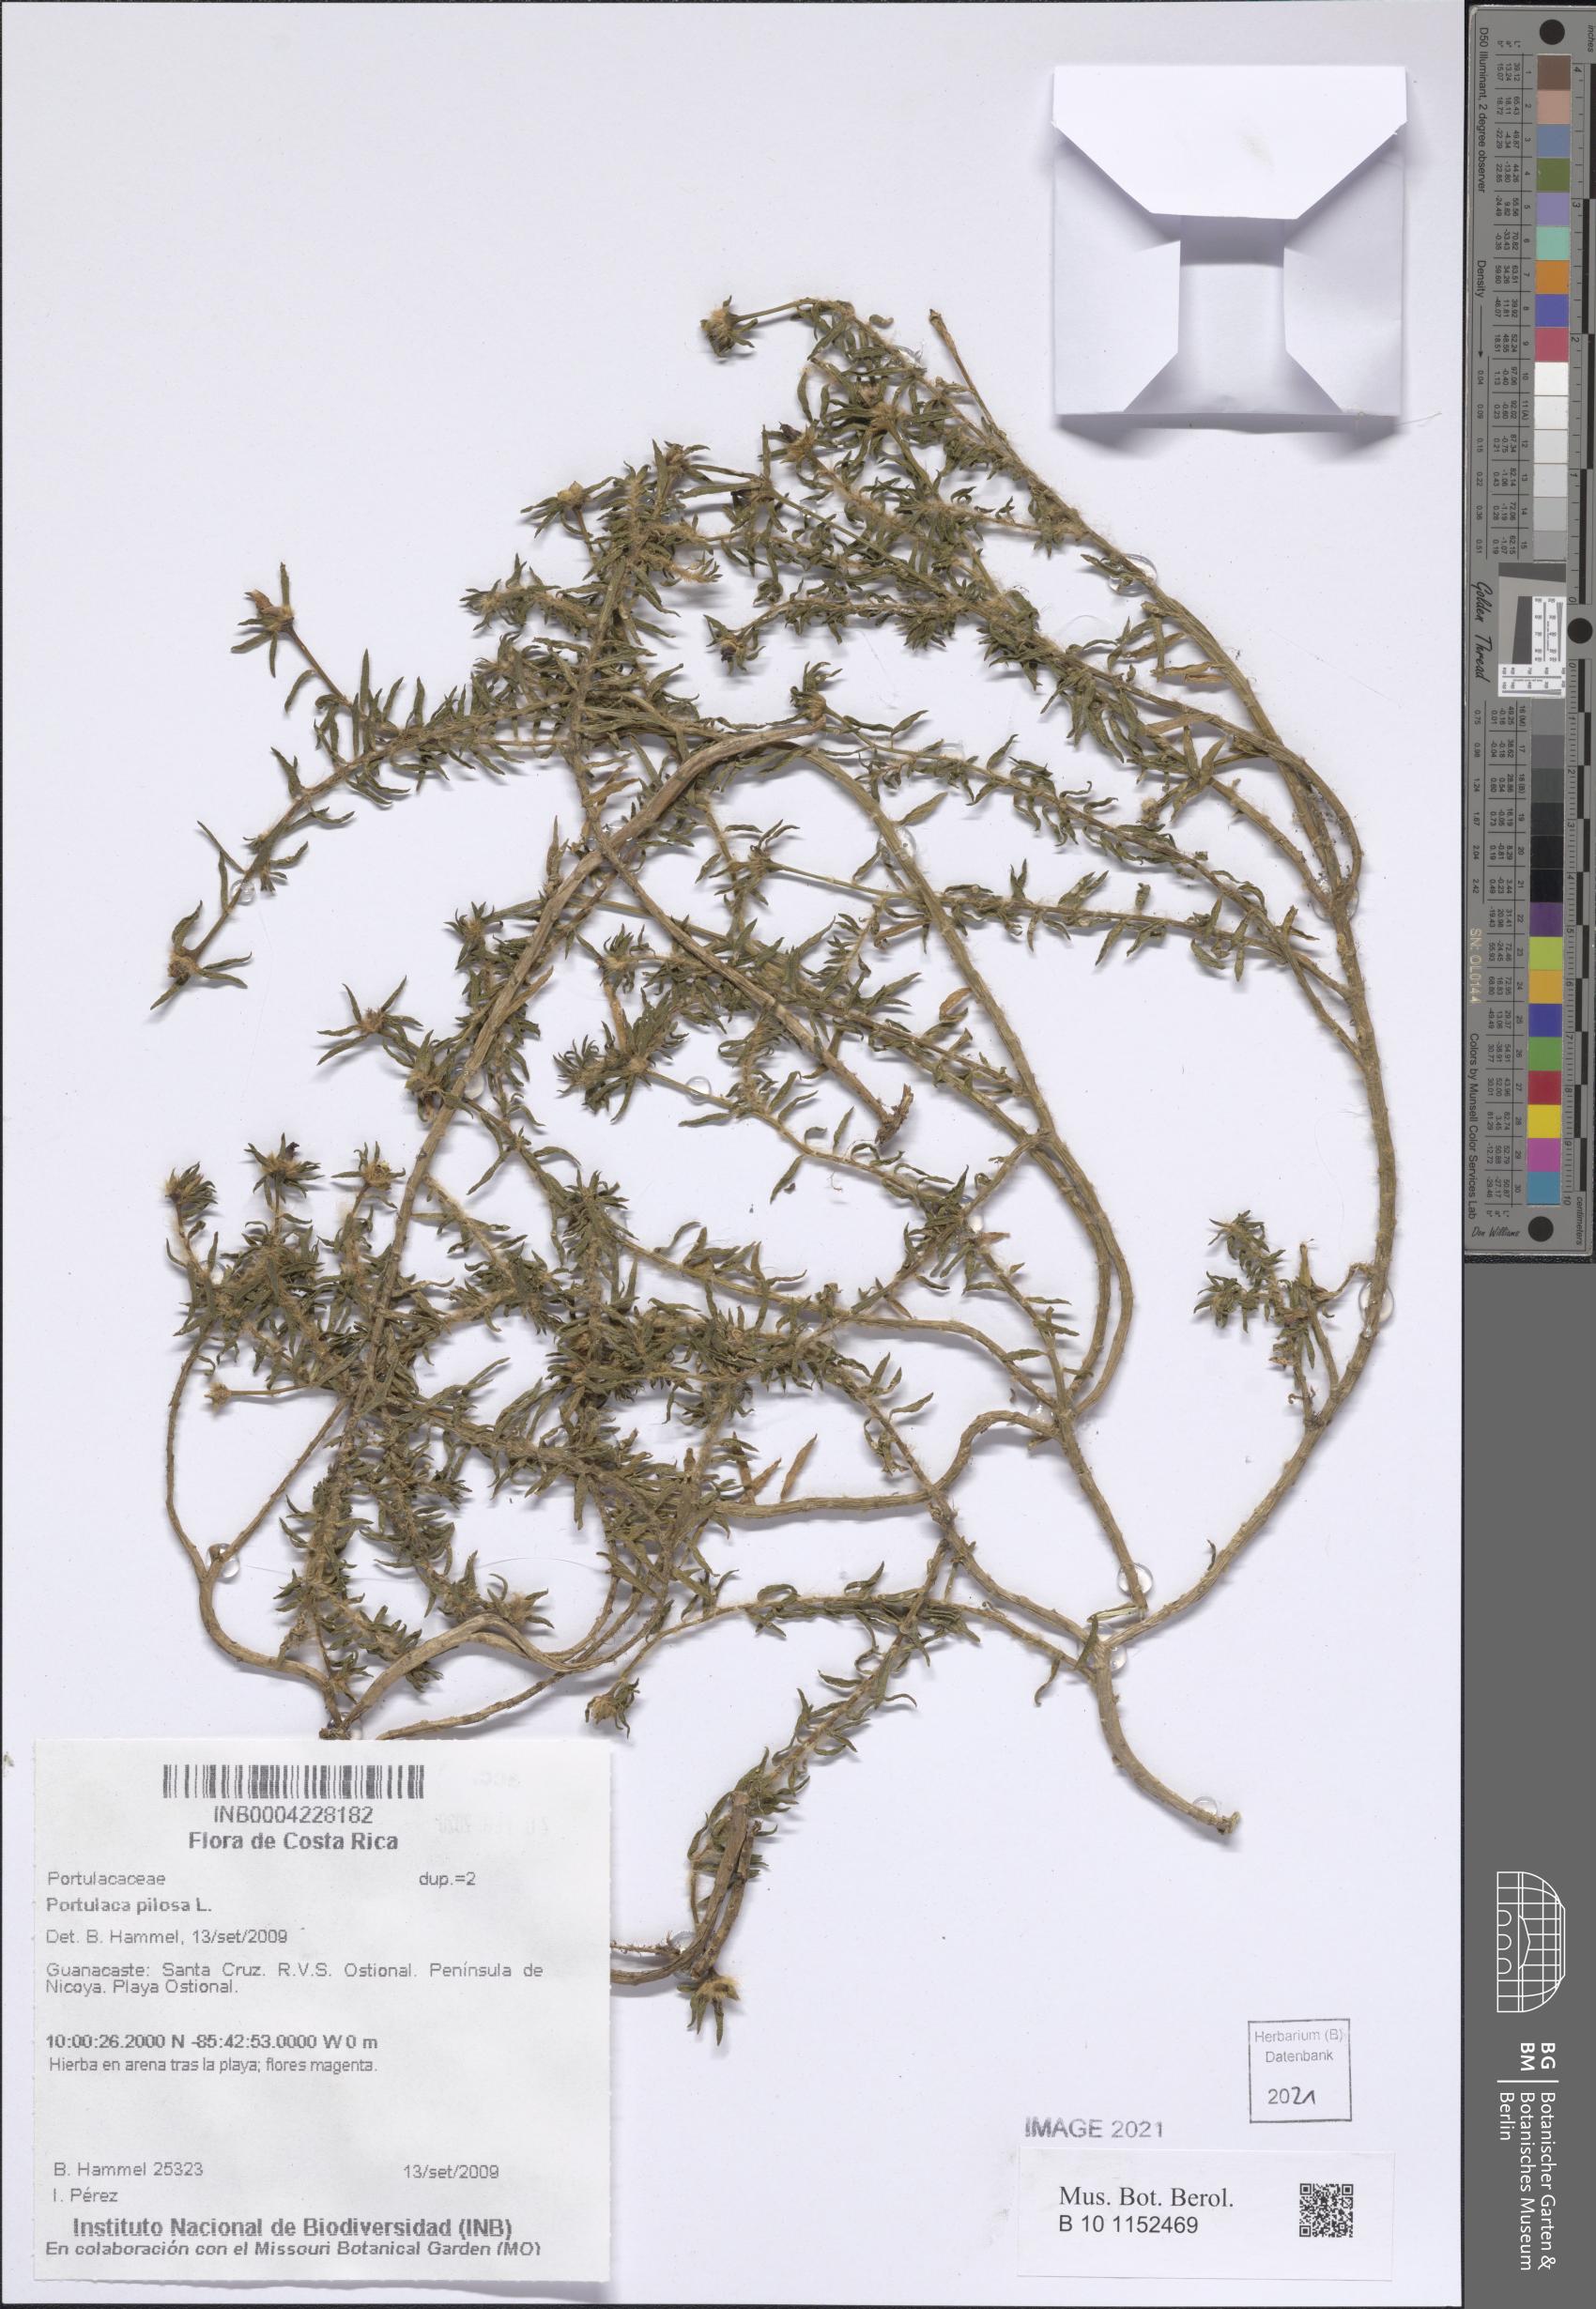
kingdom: Plantae
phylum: Tracheophyta
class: Magnoliopsida
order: Caryophyllales
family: Portulacaceae
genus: Portulaca
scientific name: Portulaca pilosa
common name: Kiss me quick
